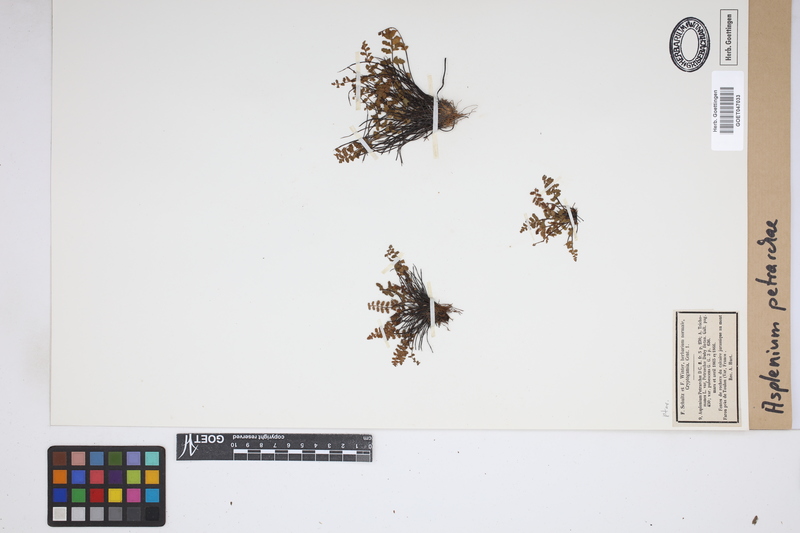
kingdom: Plantae
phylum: Tracheophyta
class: Polypodiopsida
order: Polypodiales
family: Aspleniaceae
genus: Asplenium
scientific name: Asplenium petrarchae
